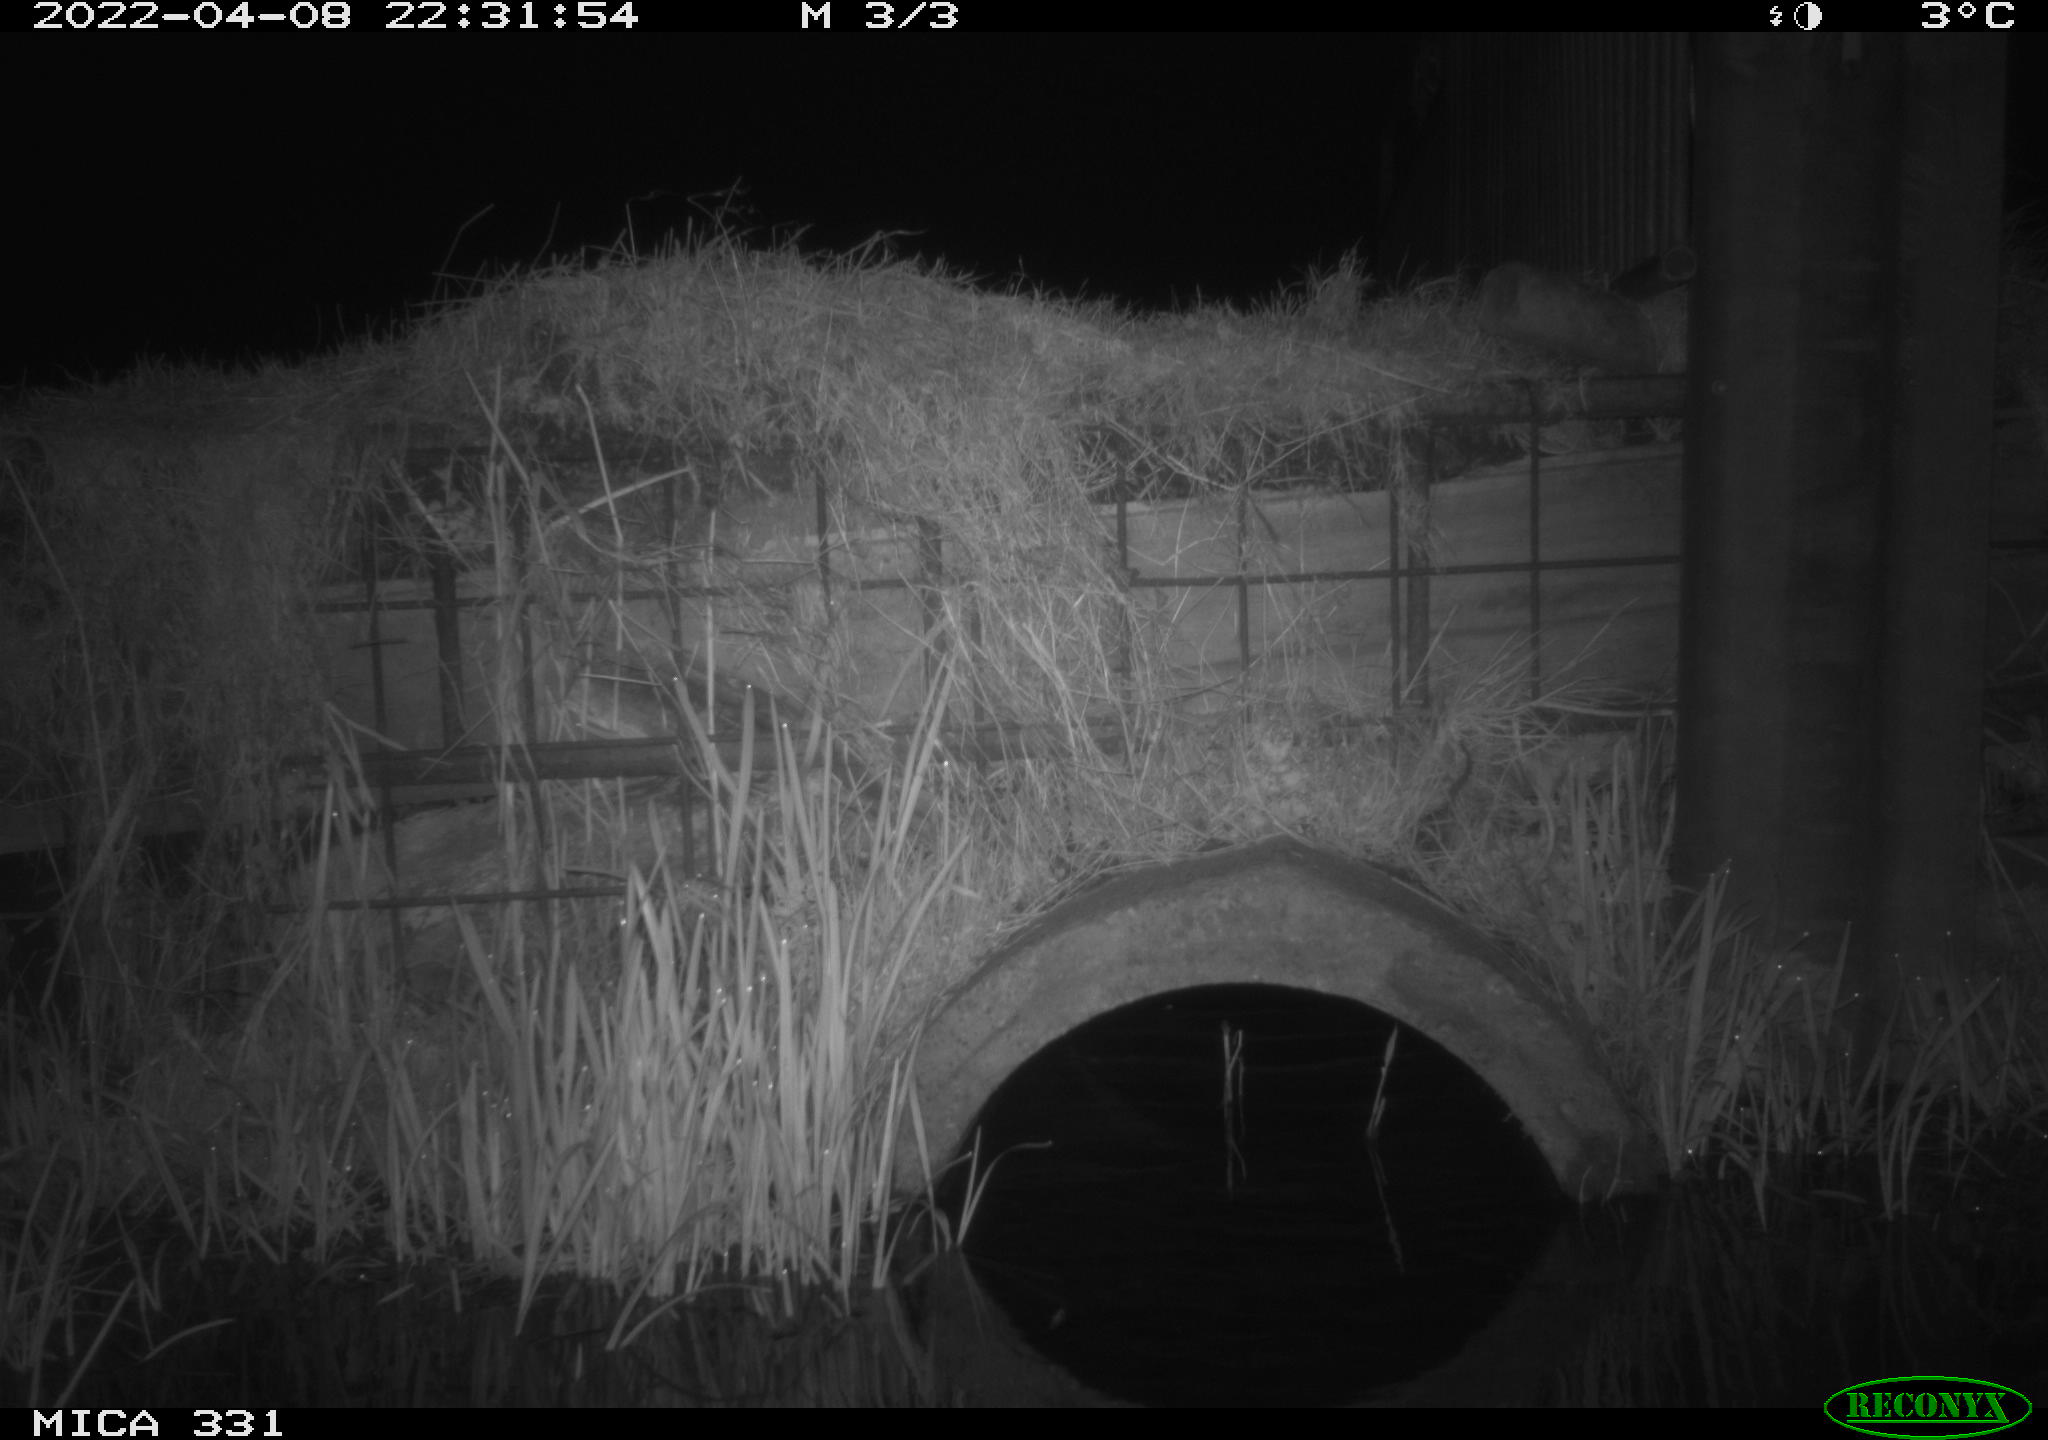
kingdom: Animalia
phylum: Chordata
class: Mammalia
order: Rodentia
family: Muridae
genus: Rattus
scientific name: Rattus norvegicus
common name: Brown rat
